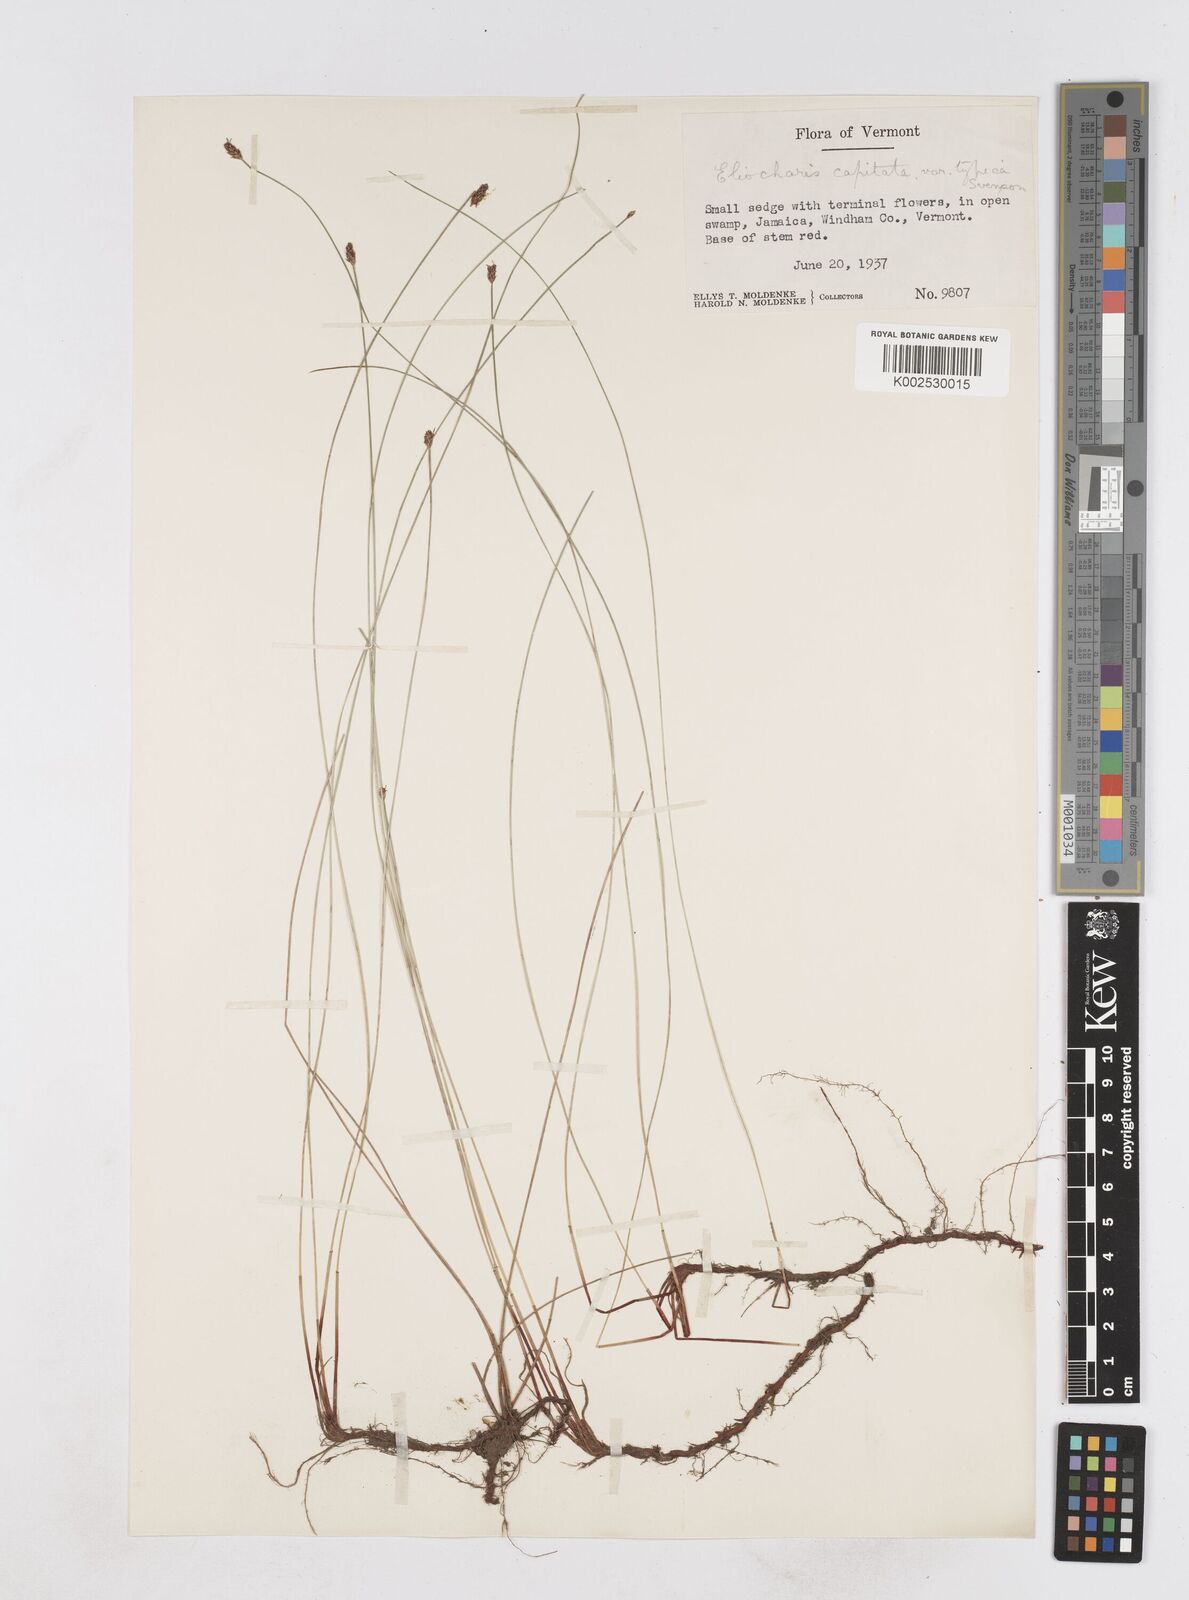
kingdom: Plantae
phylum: Tracheophyta
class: Liliopsida
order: Poales
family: Cyperaceae
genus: Eleocharis
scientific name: Eleocharis geniculata
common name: Canada spikesedge
